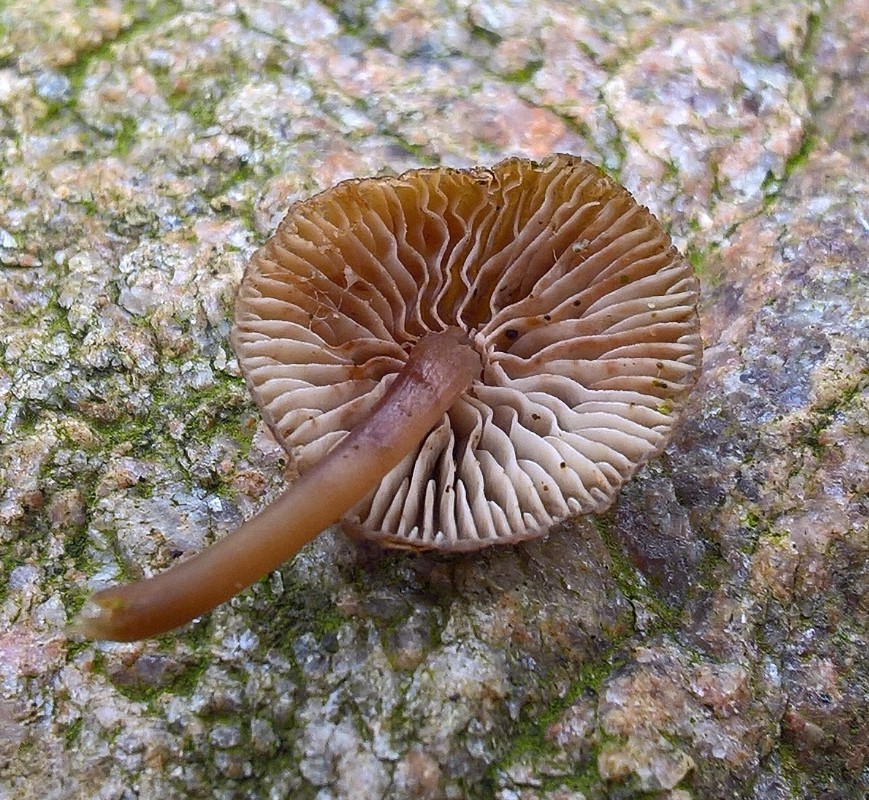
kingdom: Fungi
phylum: Basidiomycota
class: Agaricomycetes
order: Agaricales
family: Mycenaceae
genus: Mycena
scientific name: Mycena tintinnabulum
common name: vinter-huesvamp
